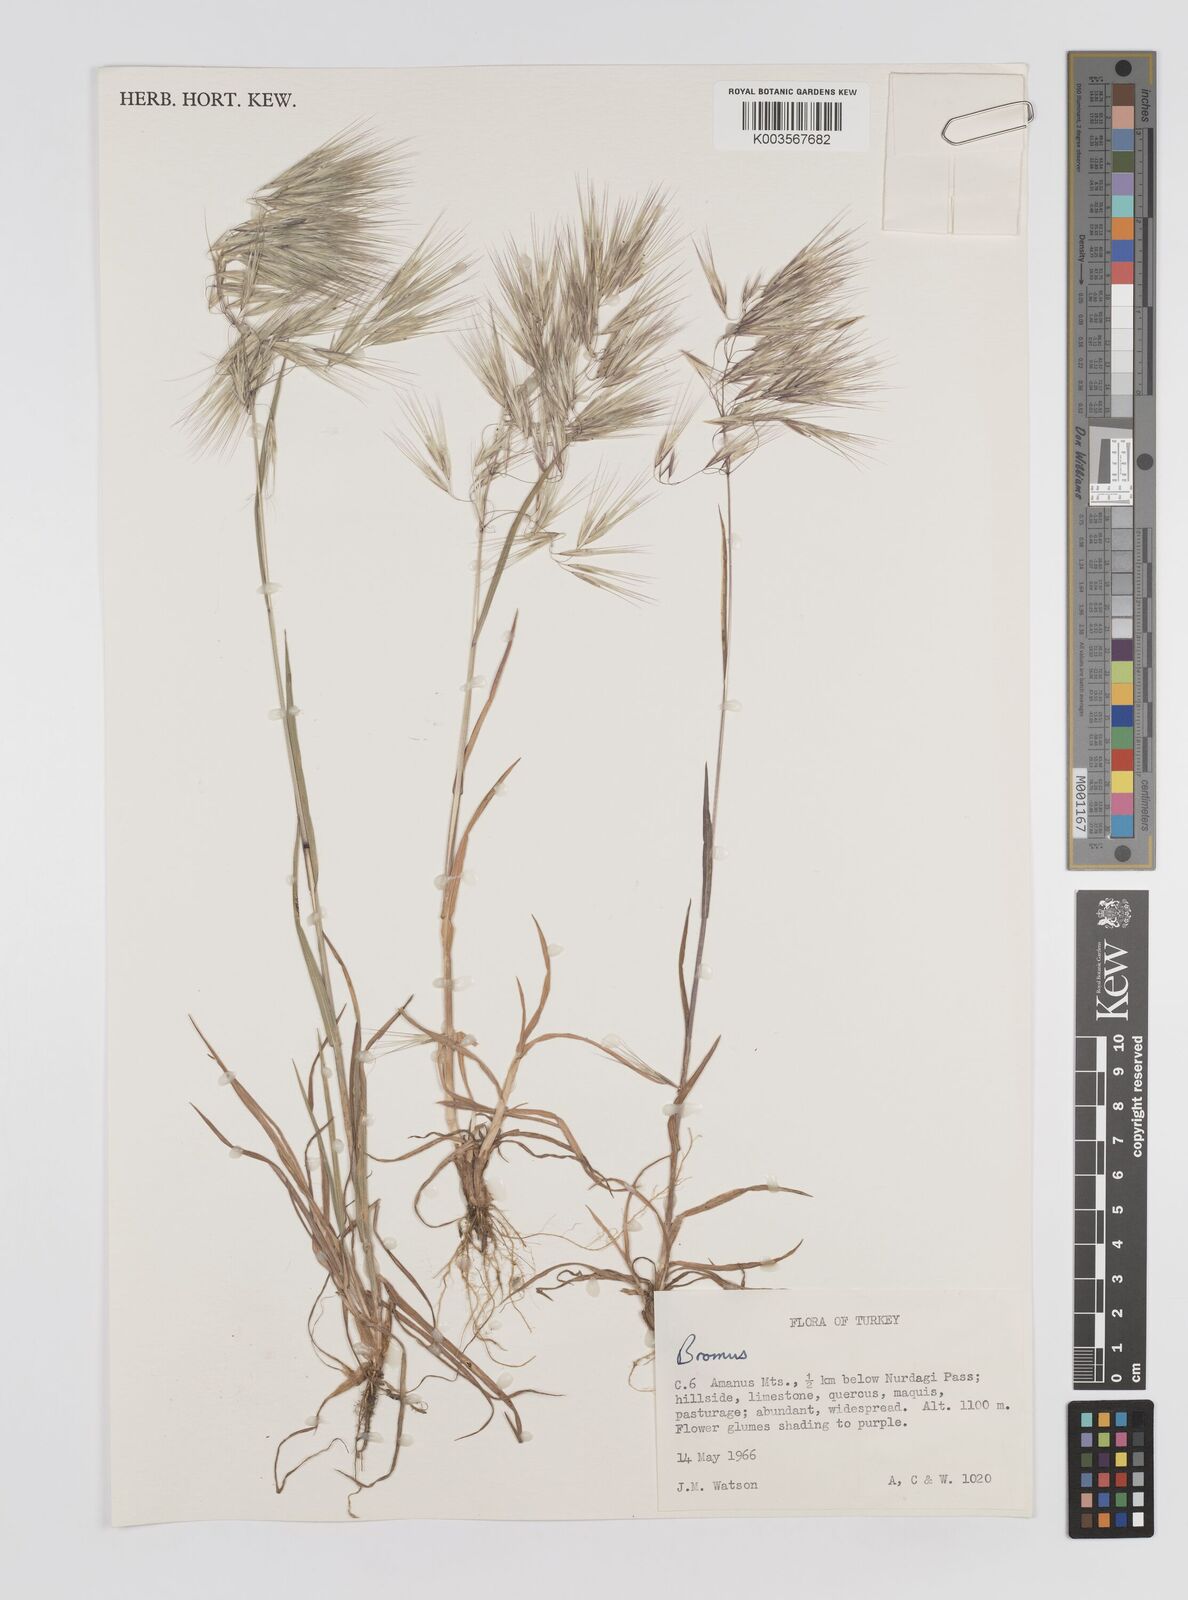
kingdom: Plantae
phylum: Tracheophyta
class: Liliopsida
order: Poales
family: Poaceae
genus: Bromus
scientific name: Bromus
